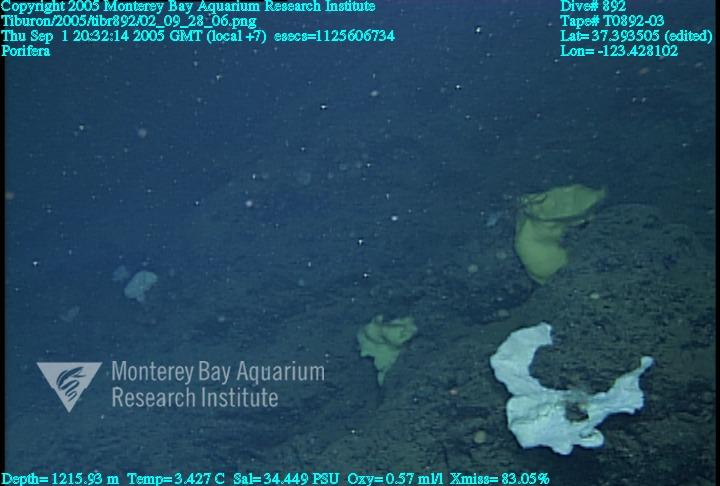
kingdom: Animalia
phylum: Porifera
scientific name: Porifera
